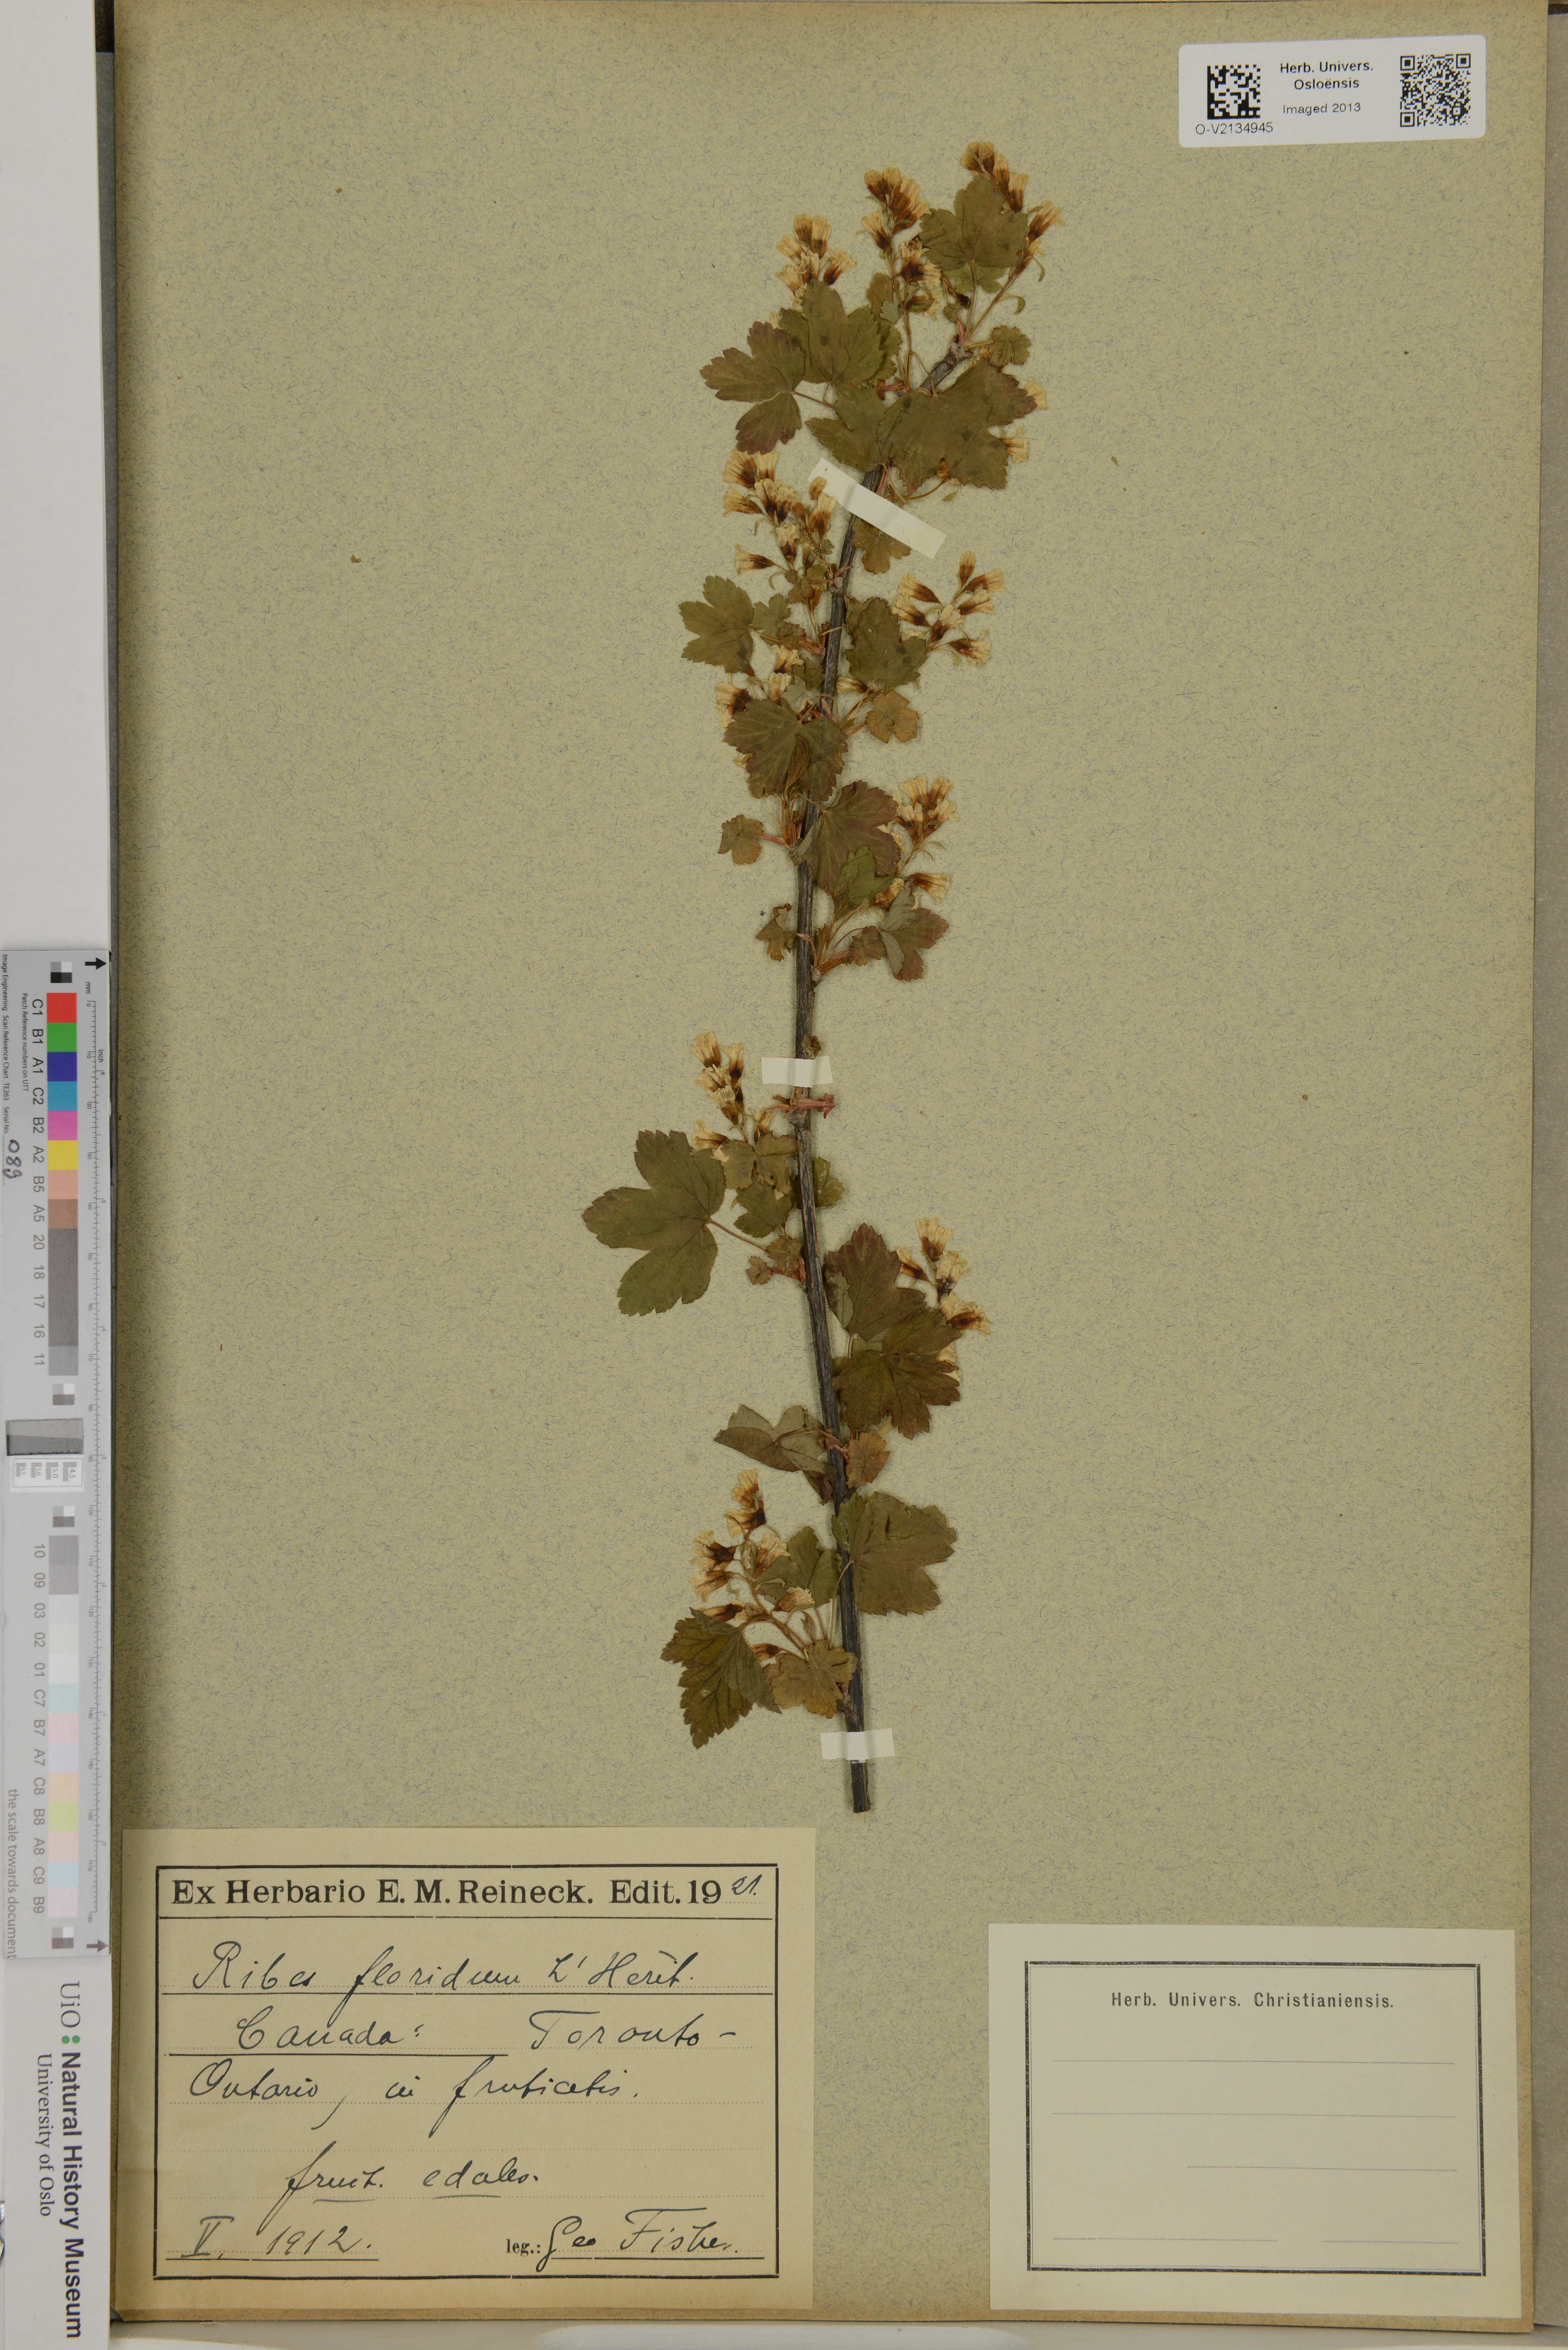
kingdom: Plantae
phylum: Tracheophyta
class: Magnoliopsida
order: Saxifragales
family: Grossulariaceae
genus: Ribes
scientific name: Ribes
